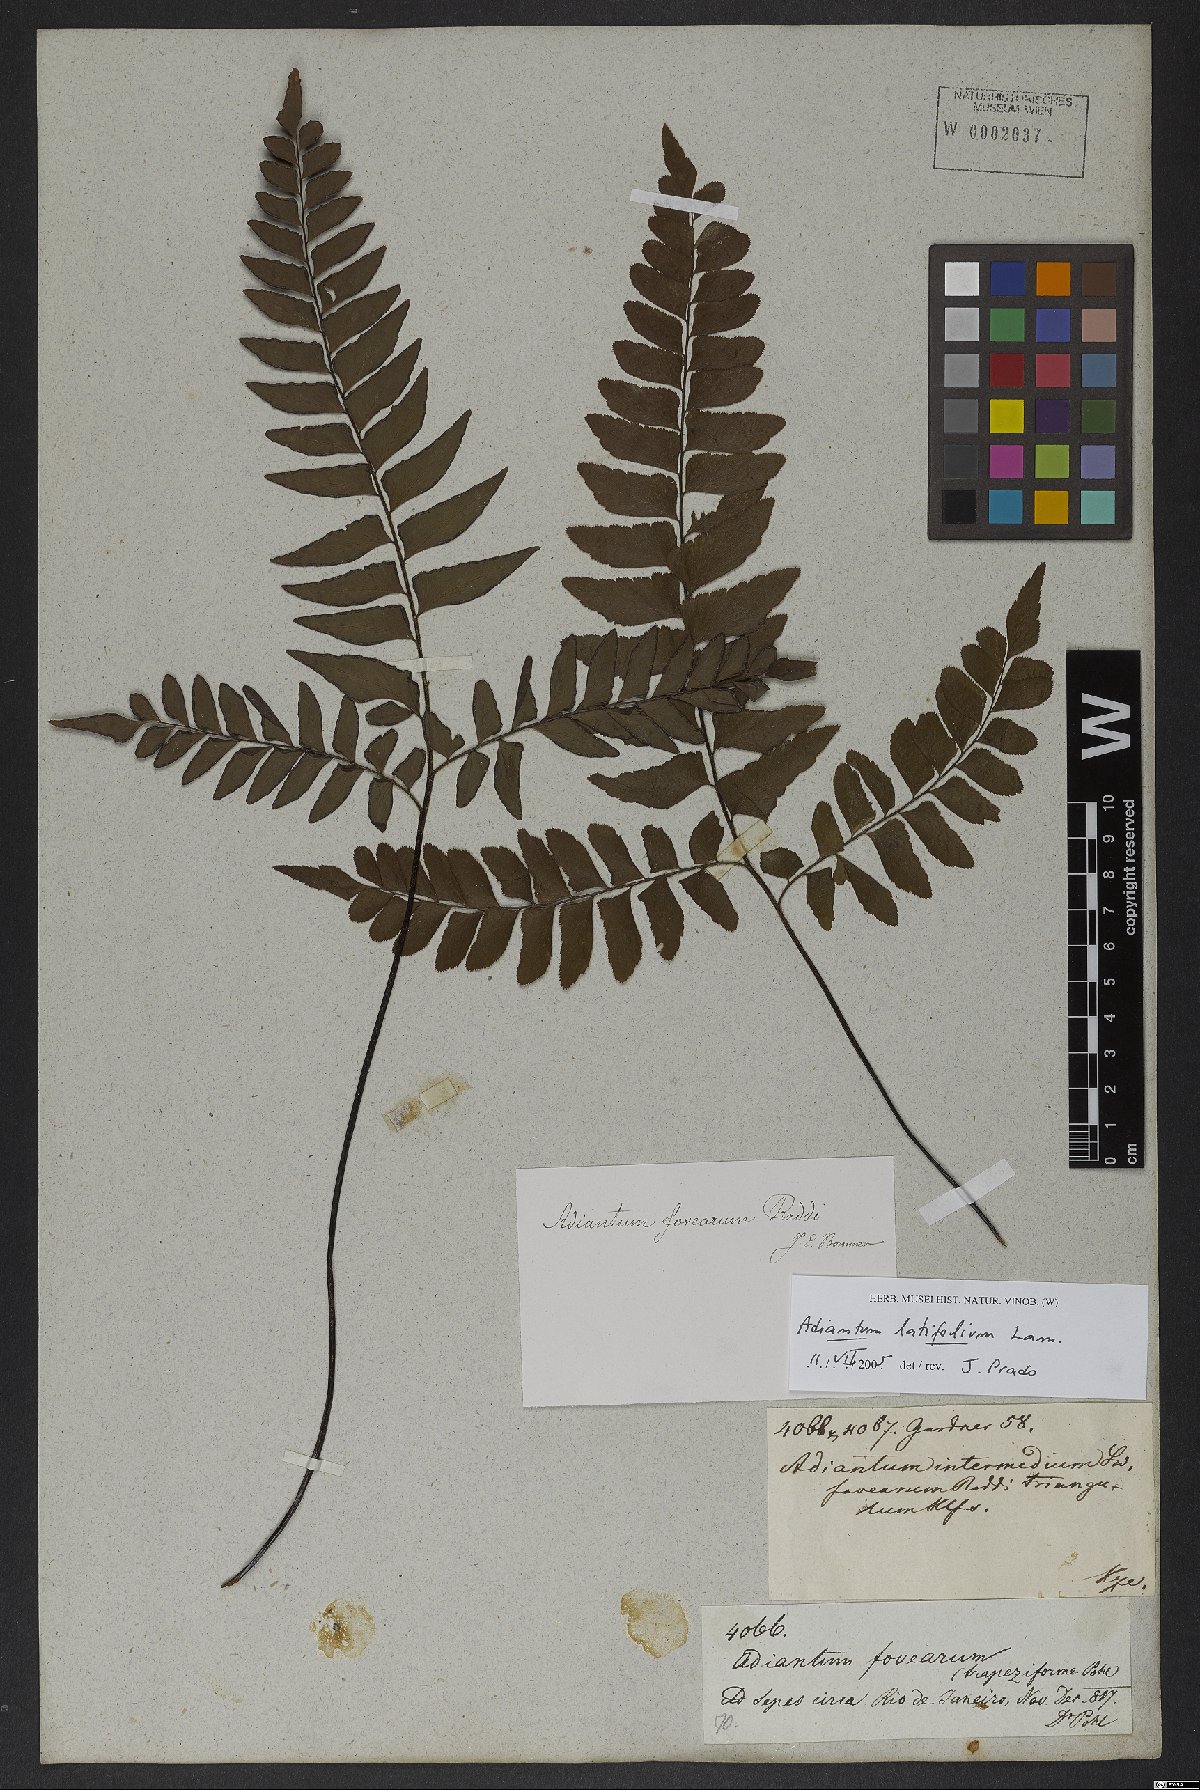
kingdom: Plantae
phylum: Tracheophyta
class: Polypodiopsida
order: Polypodiales
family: Pteridaceae
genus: Adiantum
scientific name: Adiantum latifolium
